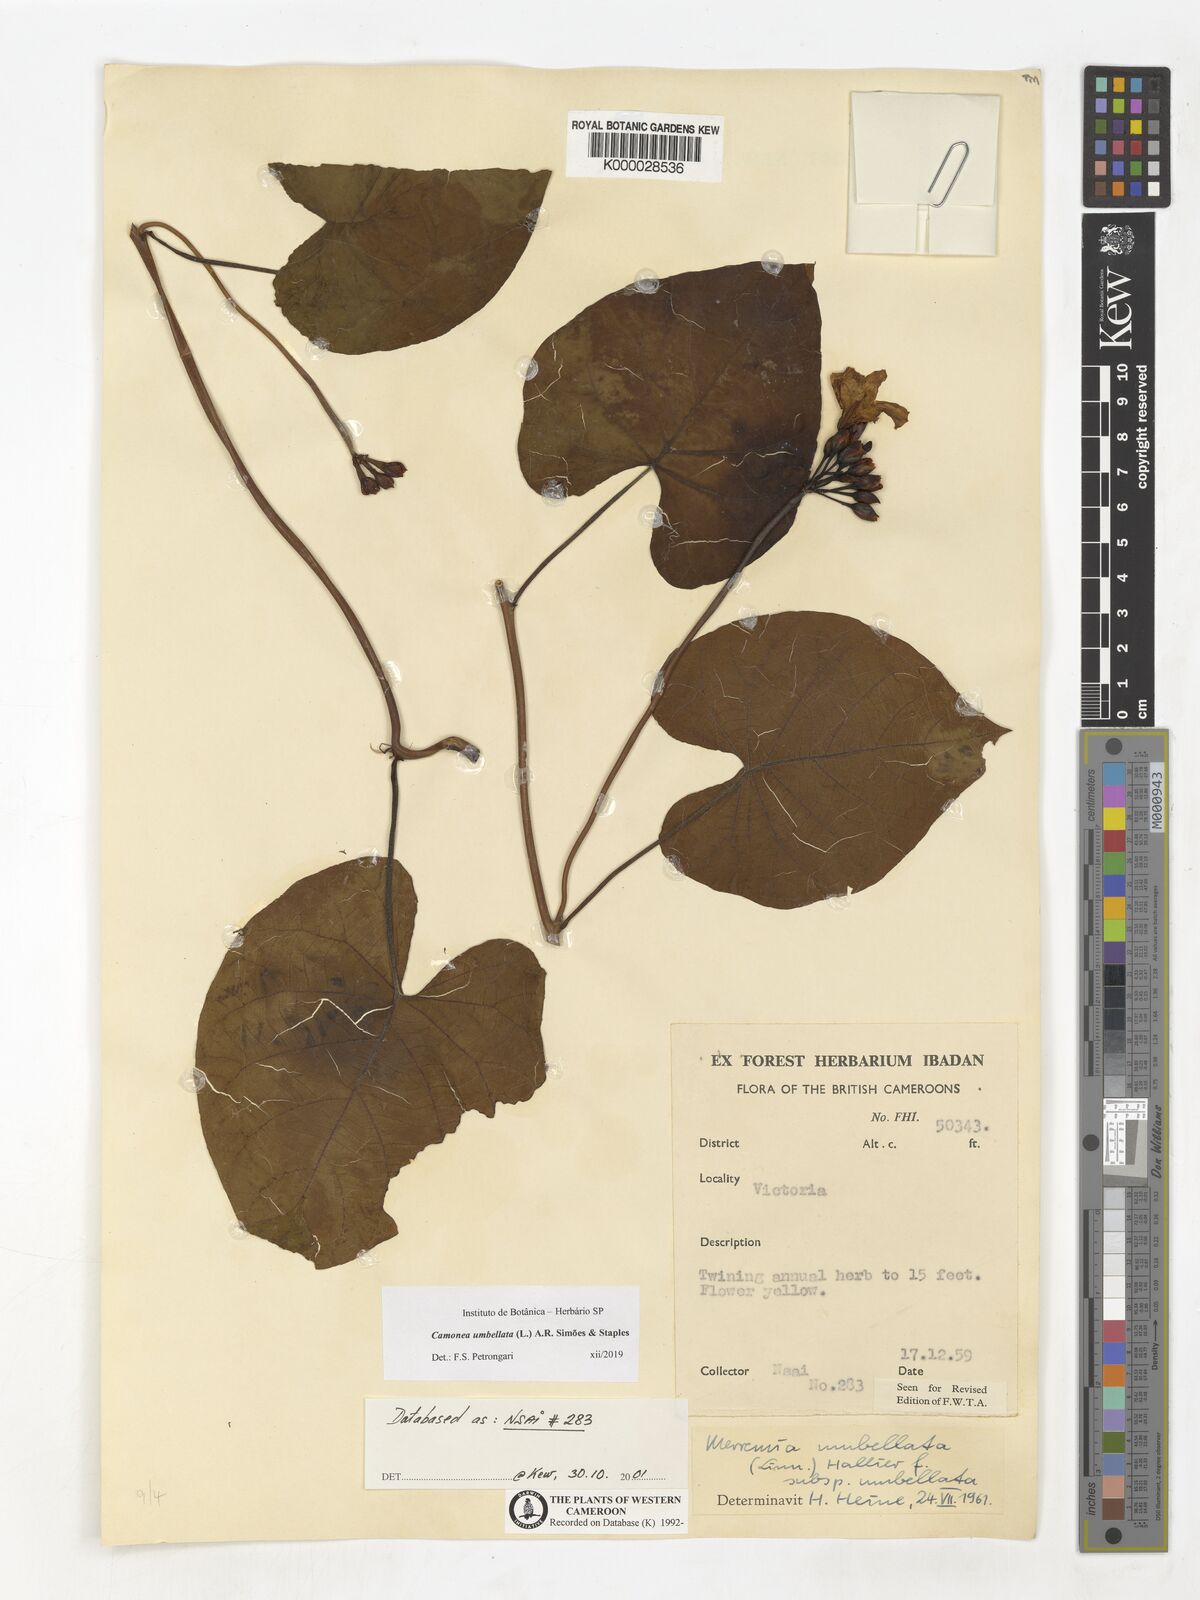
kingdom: Plantae
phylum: Tracheophyta
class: Magnoliopsida
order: Solanales
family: Convolvulaceae
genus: Camonea
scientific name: Camonea umbellata
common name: Hogvine
